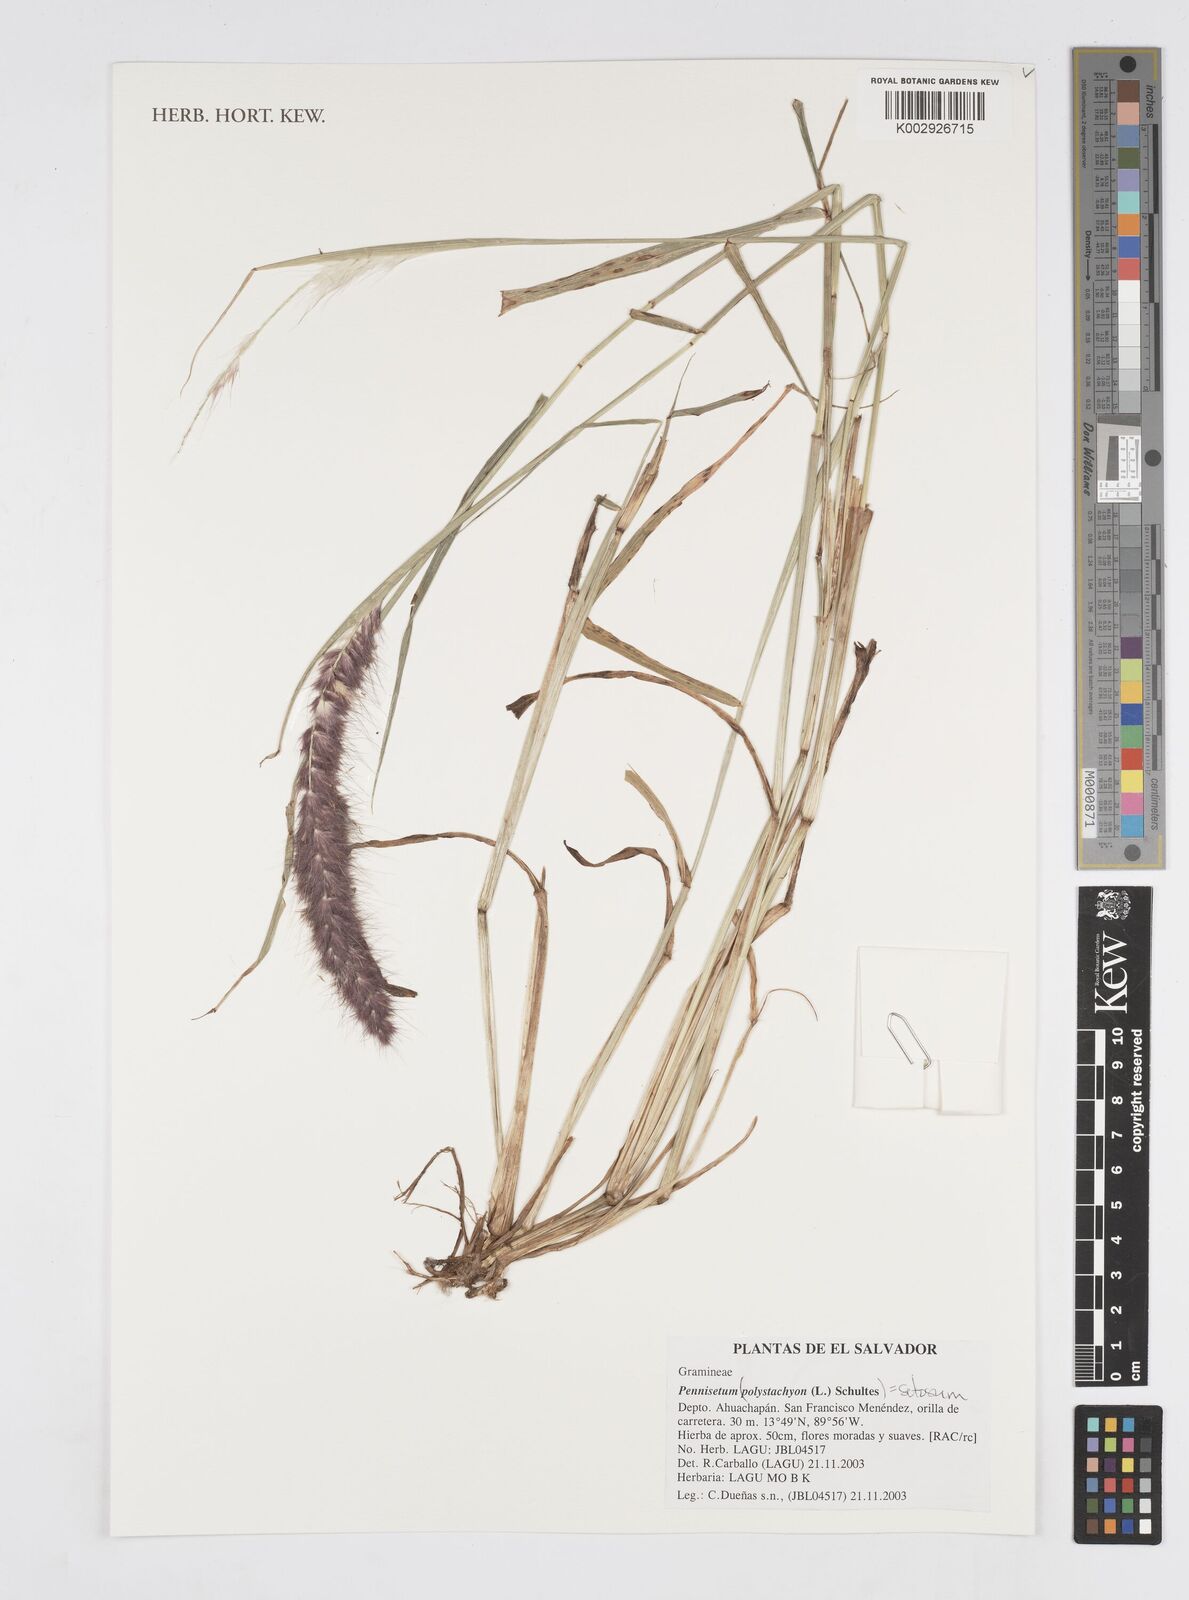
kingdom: Plantae
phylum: Tracheophyta
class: Liliopsida
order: Poales
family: Poaceae
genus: Setaria
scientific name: Setaria parviflora
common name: Knotroot bristle-grass
